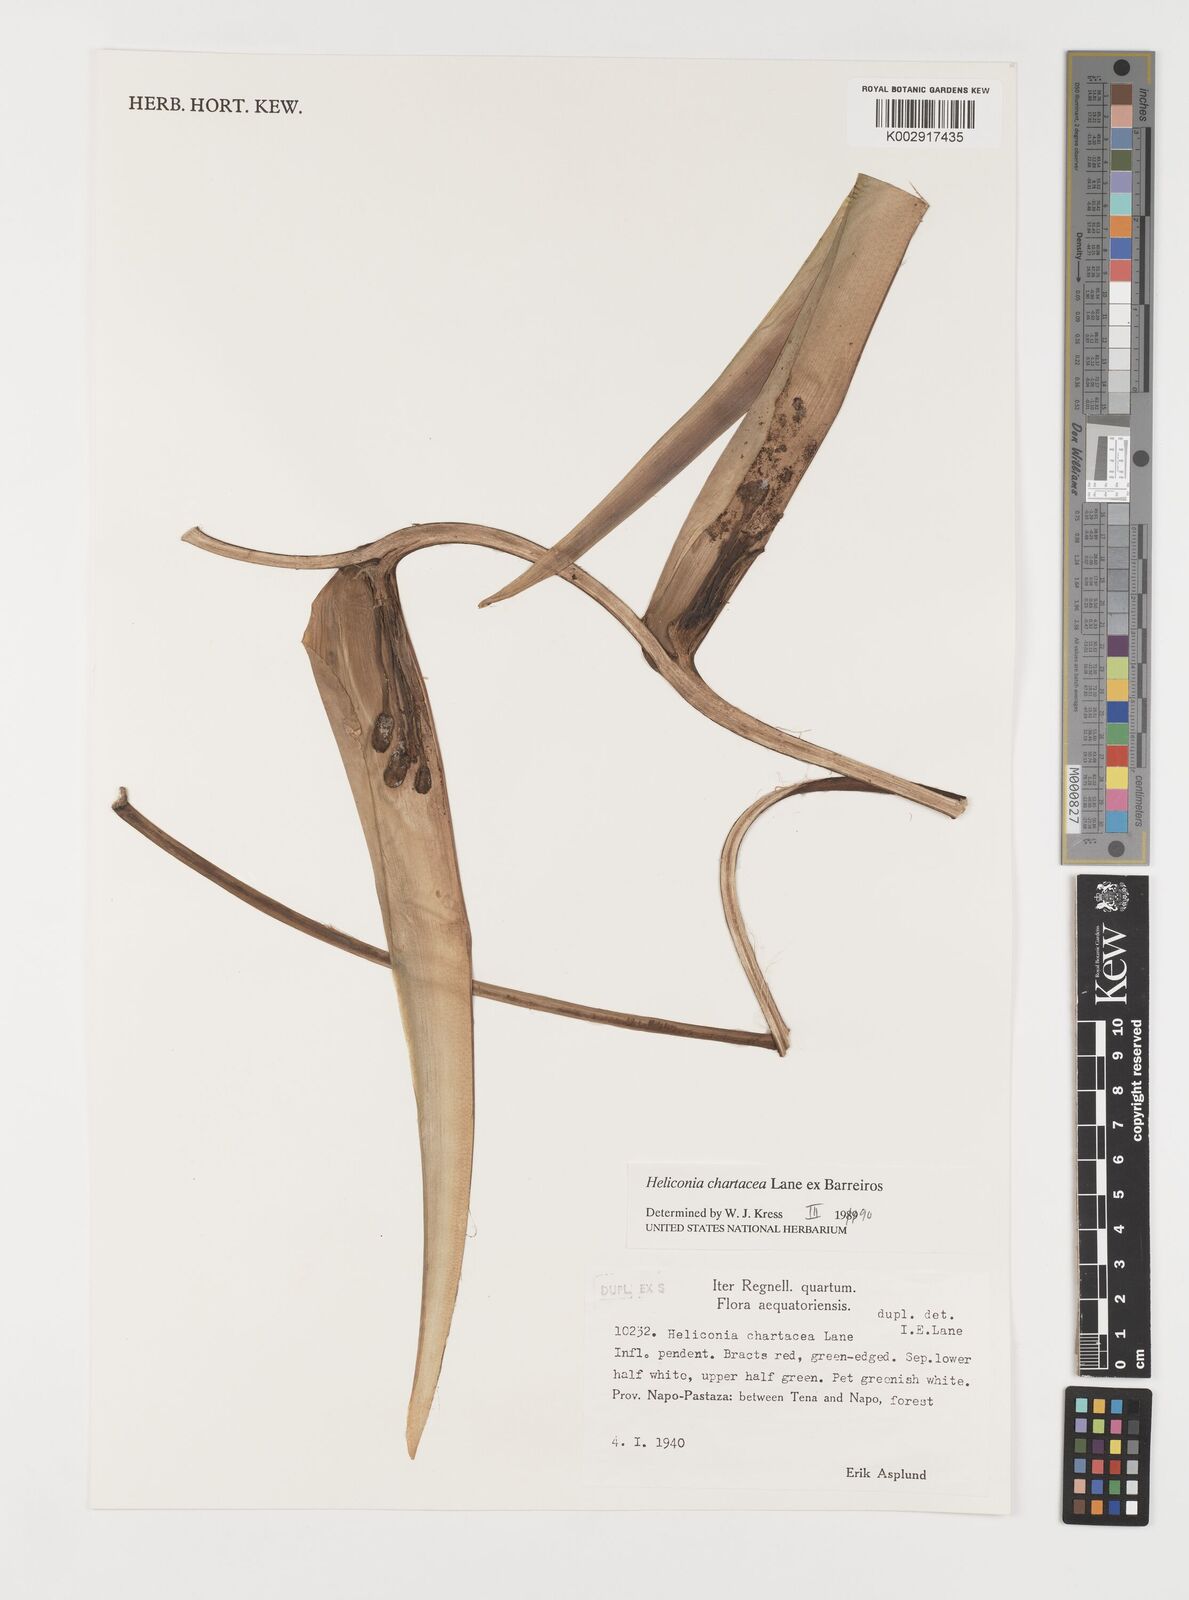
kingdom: Plantae
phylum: Tracheophyta
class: Liliopsida
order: Zingiberales
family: Heliconiaceae
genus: Heliconia
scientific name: Heliconia bourgaeana
